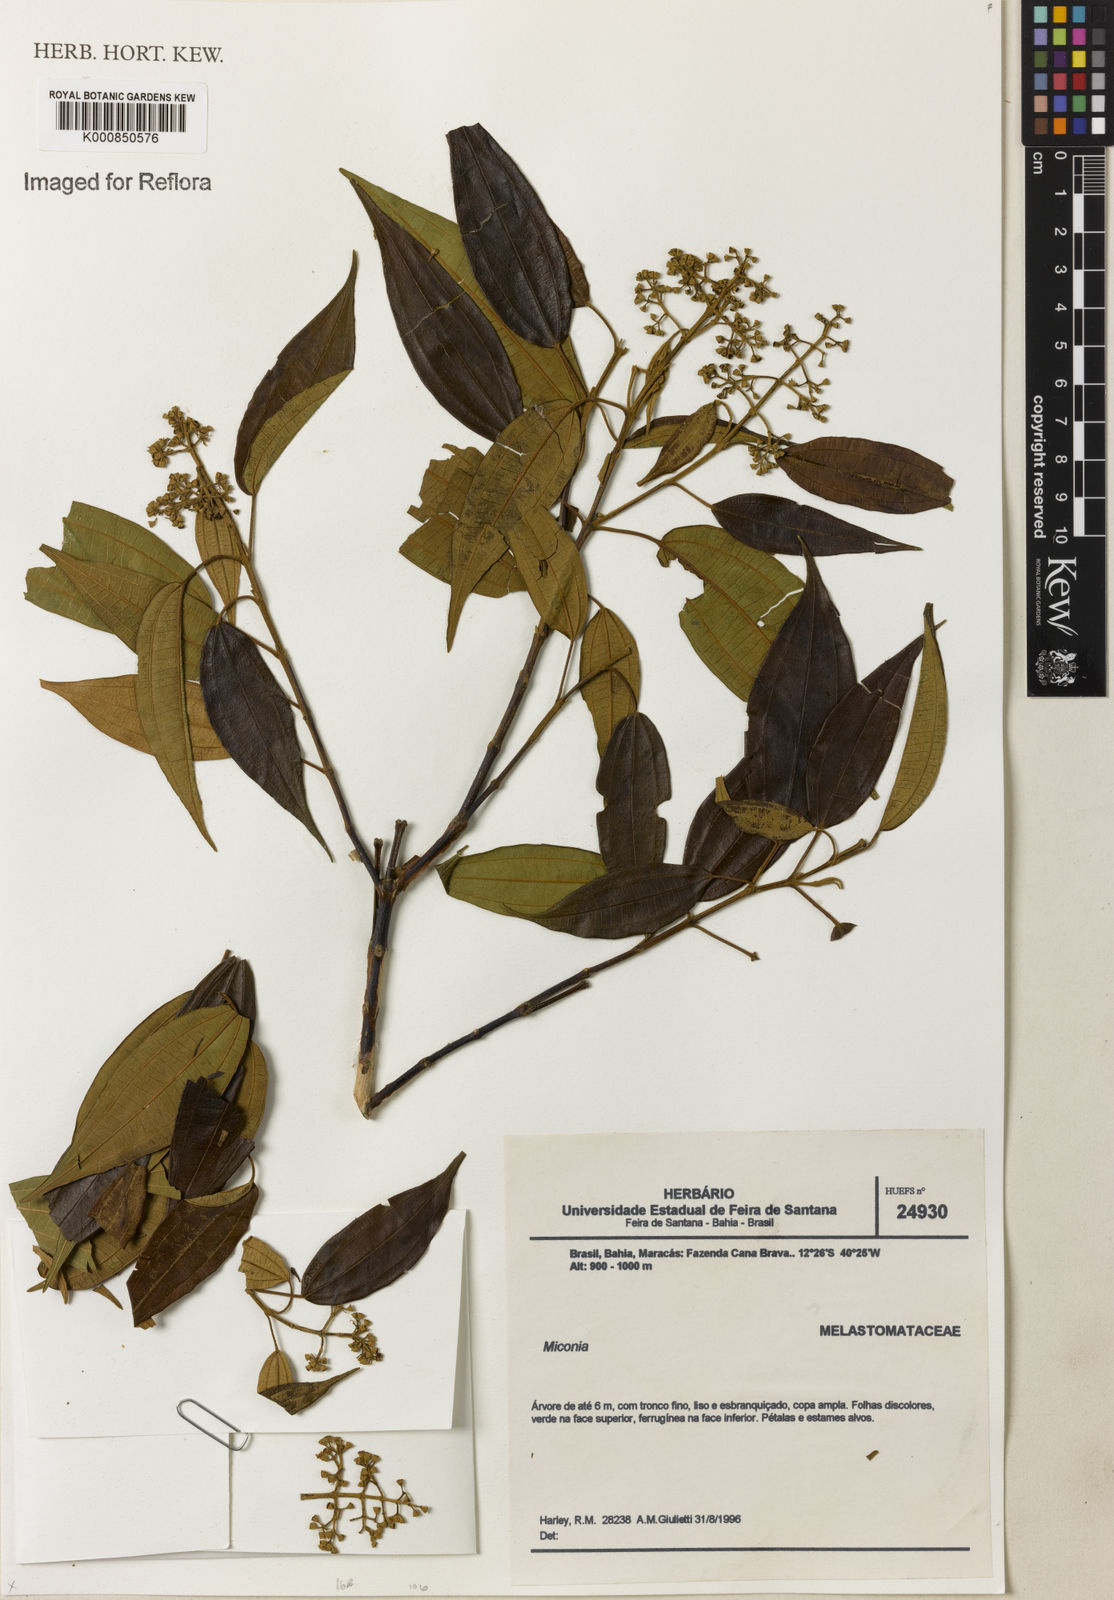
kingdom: Plantae
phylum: Tracheophyta
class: Magnoliopsida
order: Myrtales
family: Melastomataceae
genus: Miconia
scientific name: Miconia nordestina
